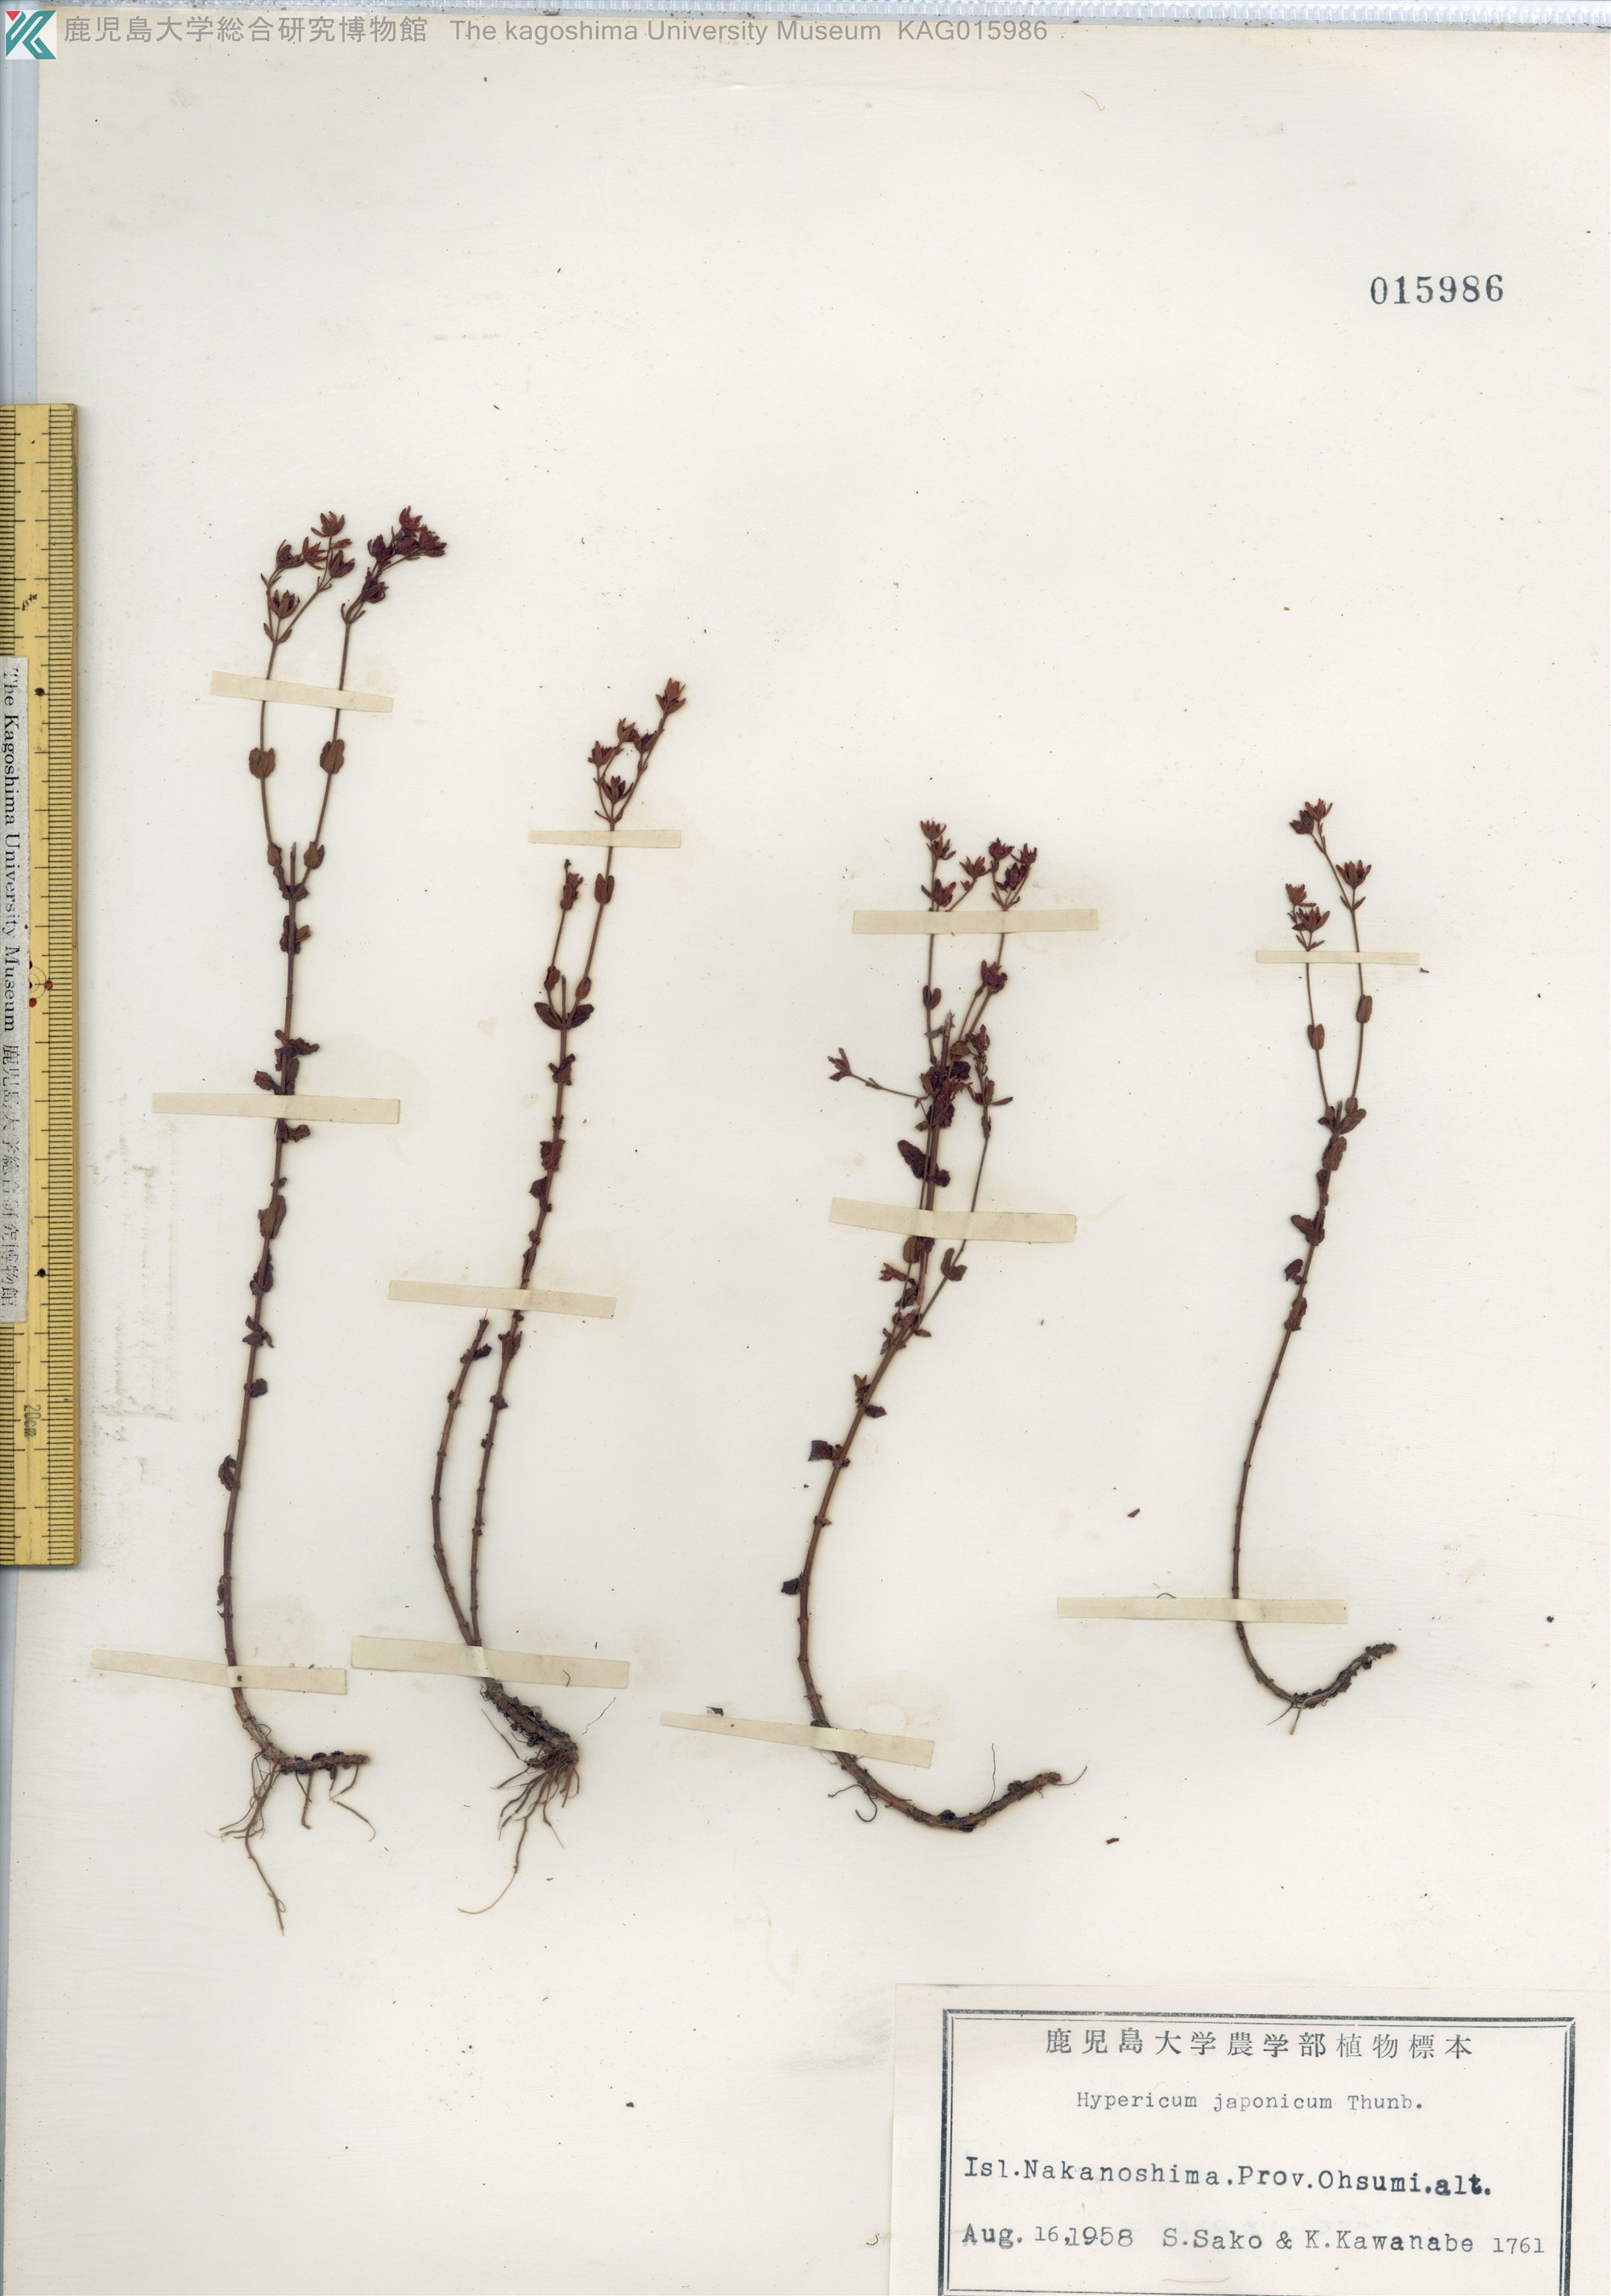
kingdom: Plantae
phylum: Tracheophyta
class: Magnoliopsida
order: Malpighiales
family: Hypericaceae
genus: Hypericum
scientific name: Hypericum japonicum
